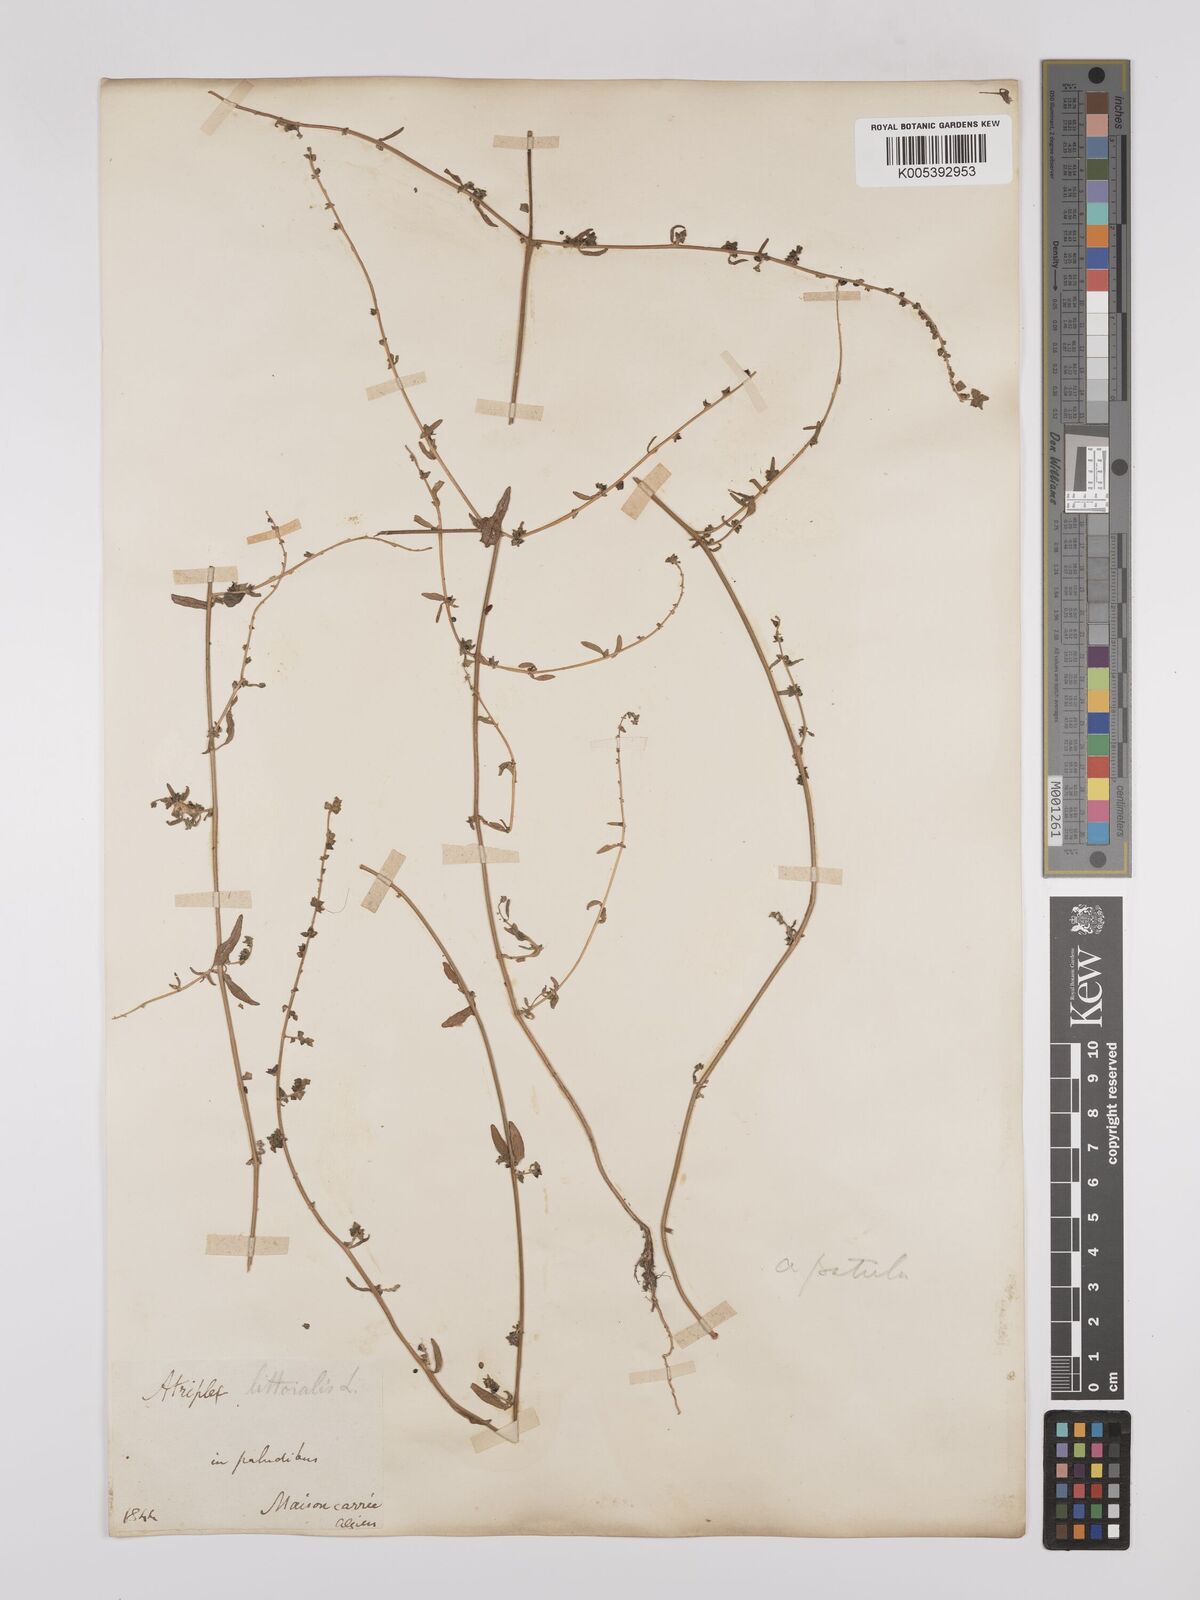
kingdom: Plantae
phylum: Tracheophyta
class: Magnoliopsida
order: Caryophyllales
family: Amaranthaceae
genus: Atriplex
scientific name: Atriplex patula
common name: Common orache
